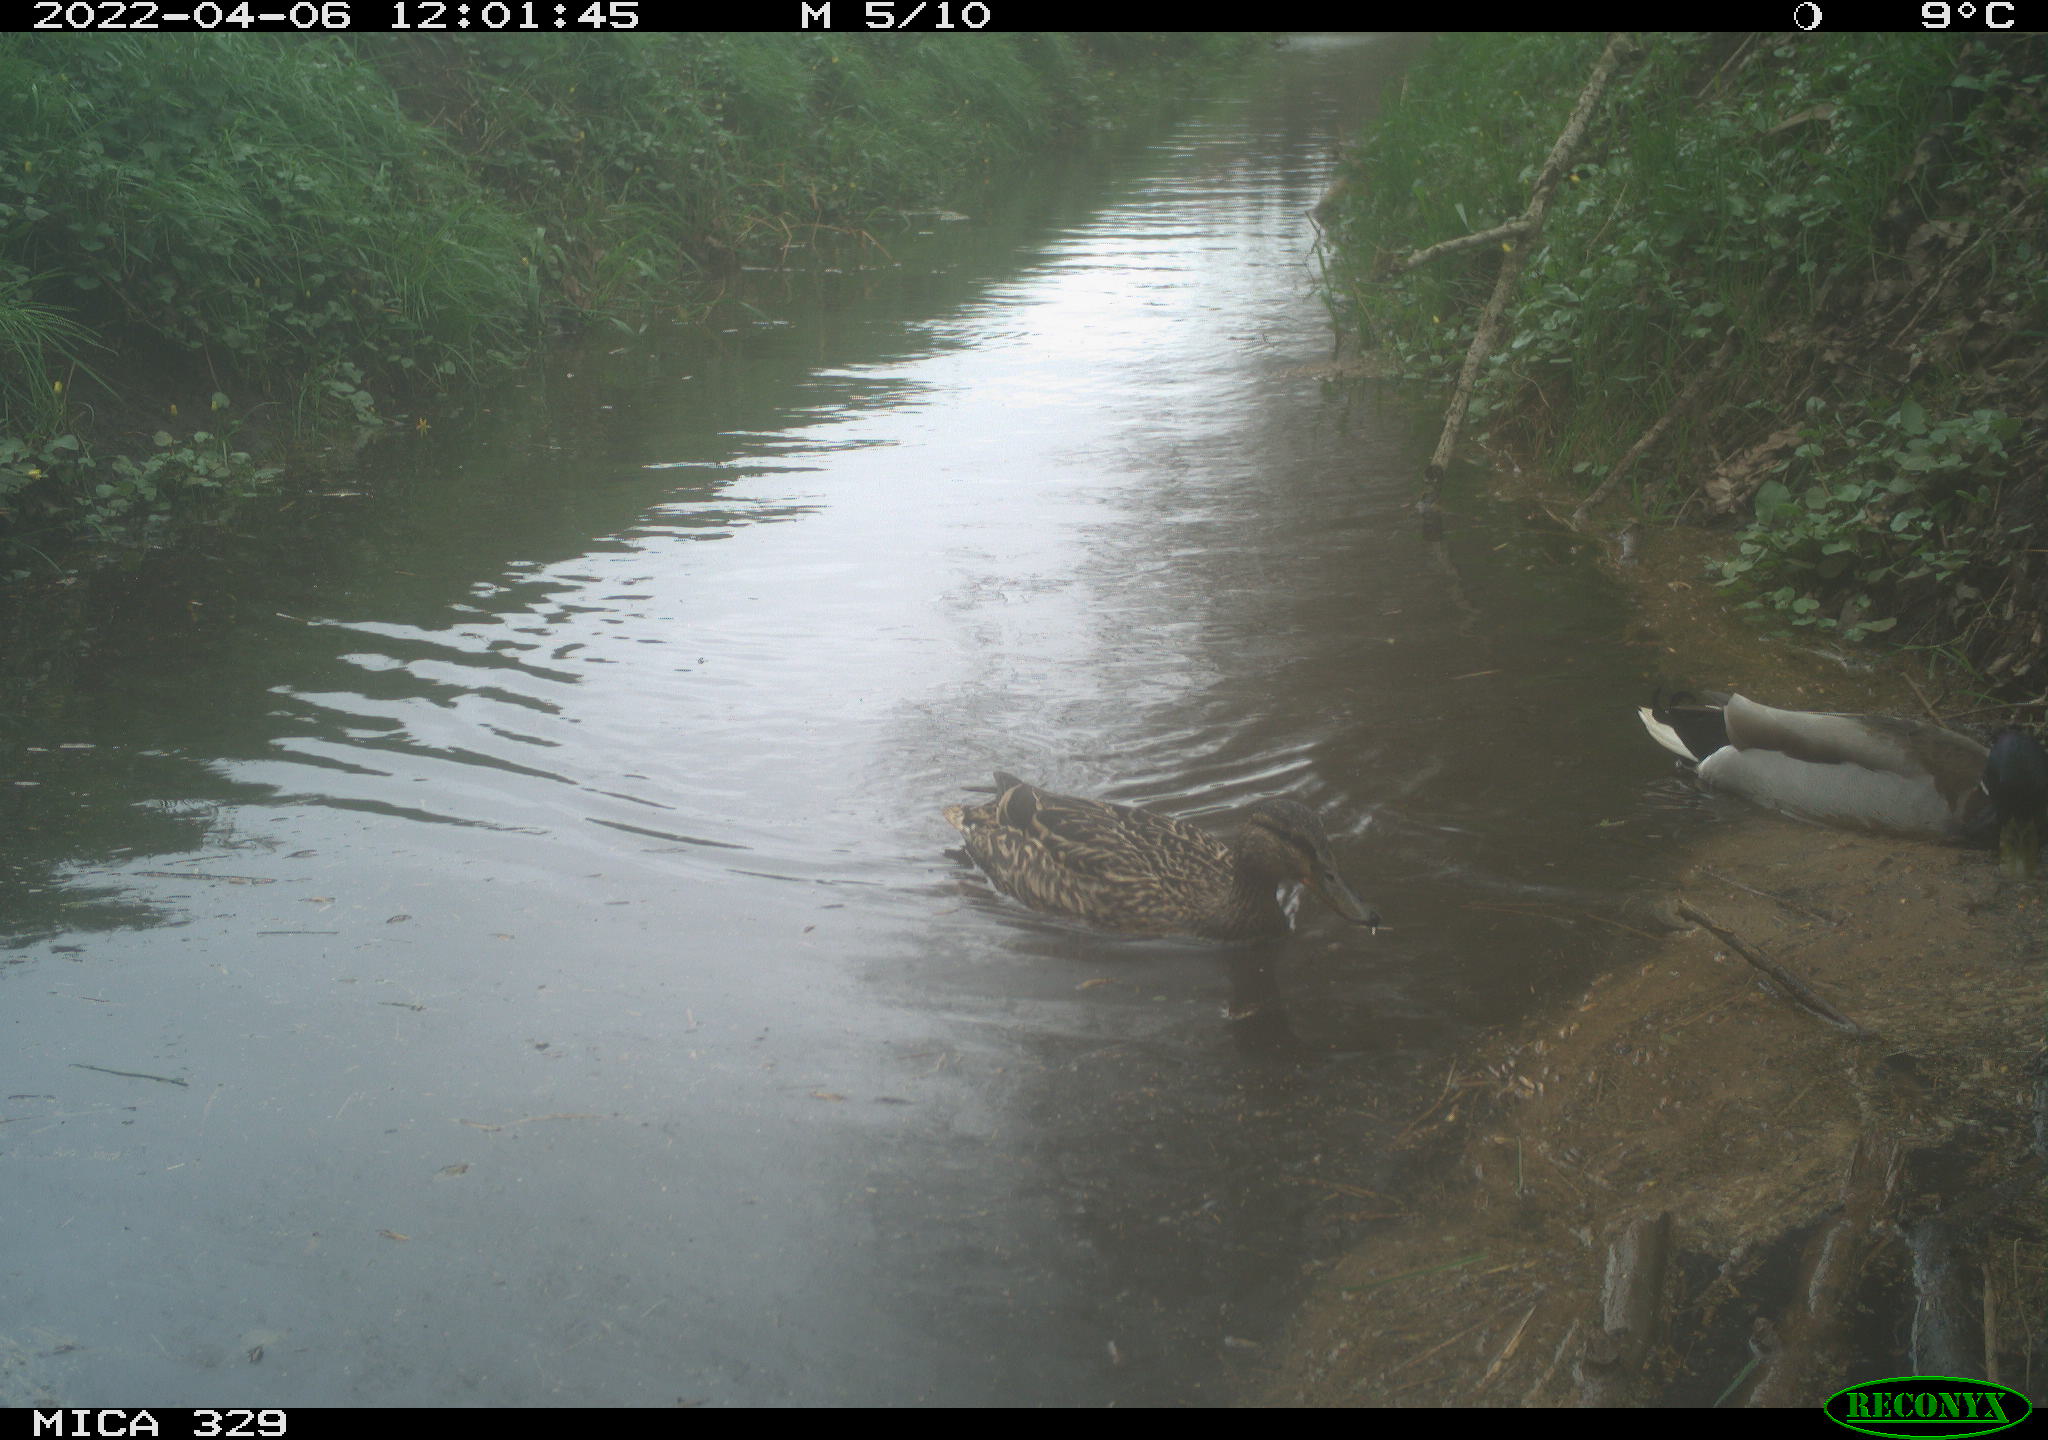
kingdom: Animalia
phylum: Chordata
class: Aves
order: Anseriformes
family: Anatidae
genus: Anas
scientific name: Anas platyrhynchos
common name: Mallard
